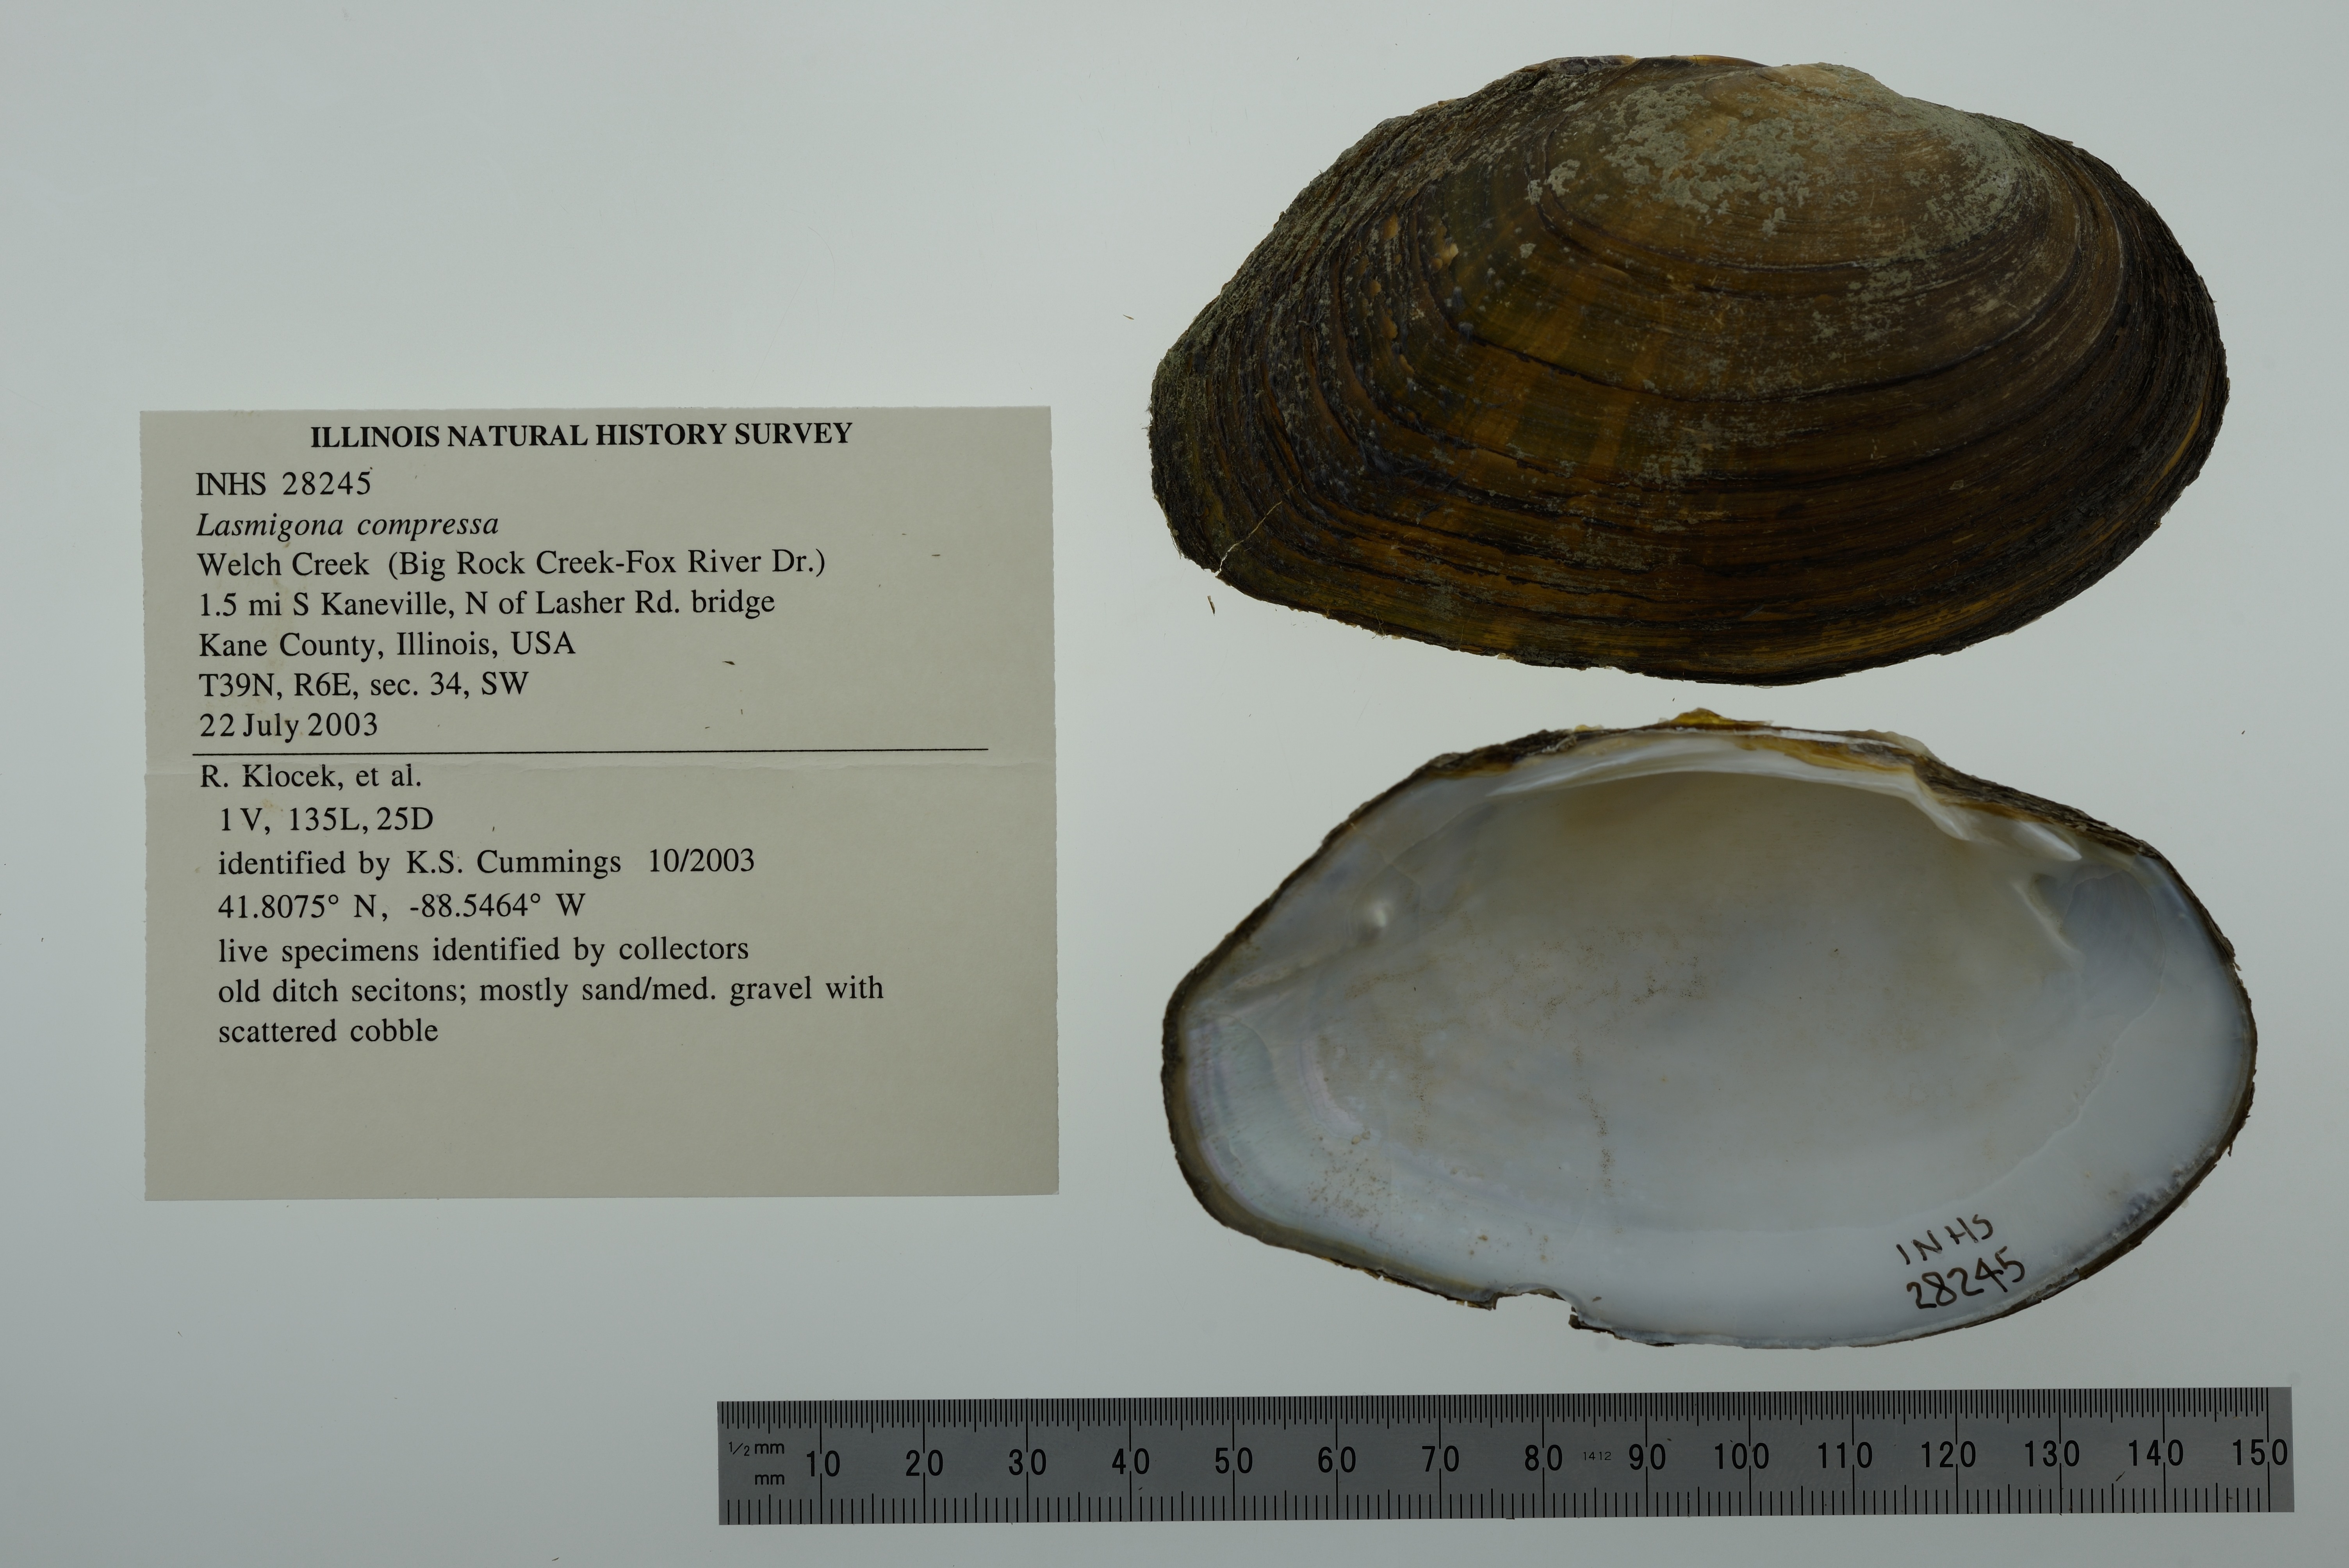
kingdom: Animalia
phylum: Mollusca
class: Bivalvia
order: Unionida
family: Unionidae
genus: Lasmigona
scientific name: Lasmigona compressa
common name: Creek heelsplitter
